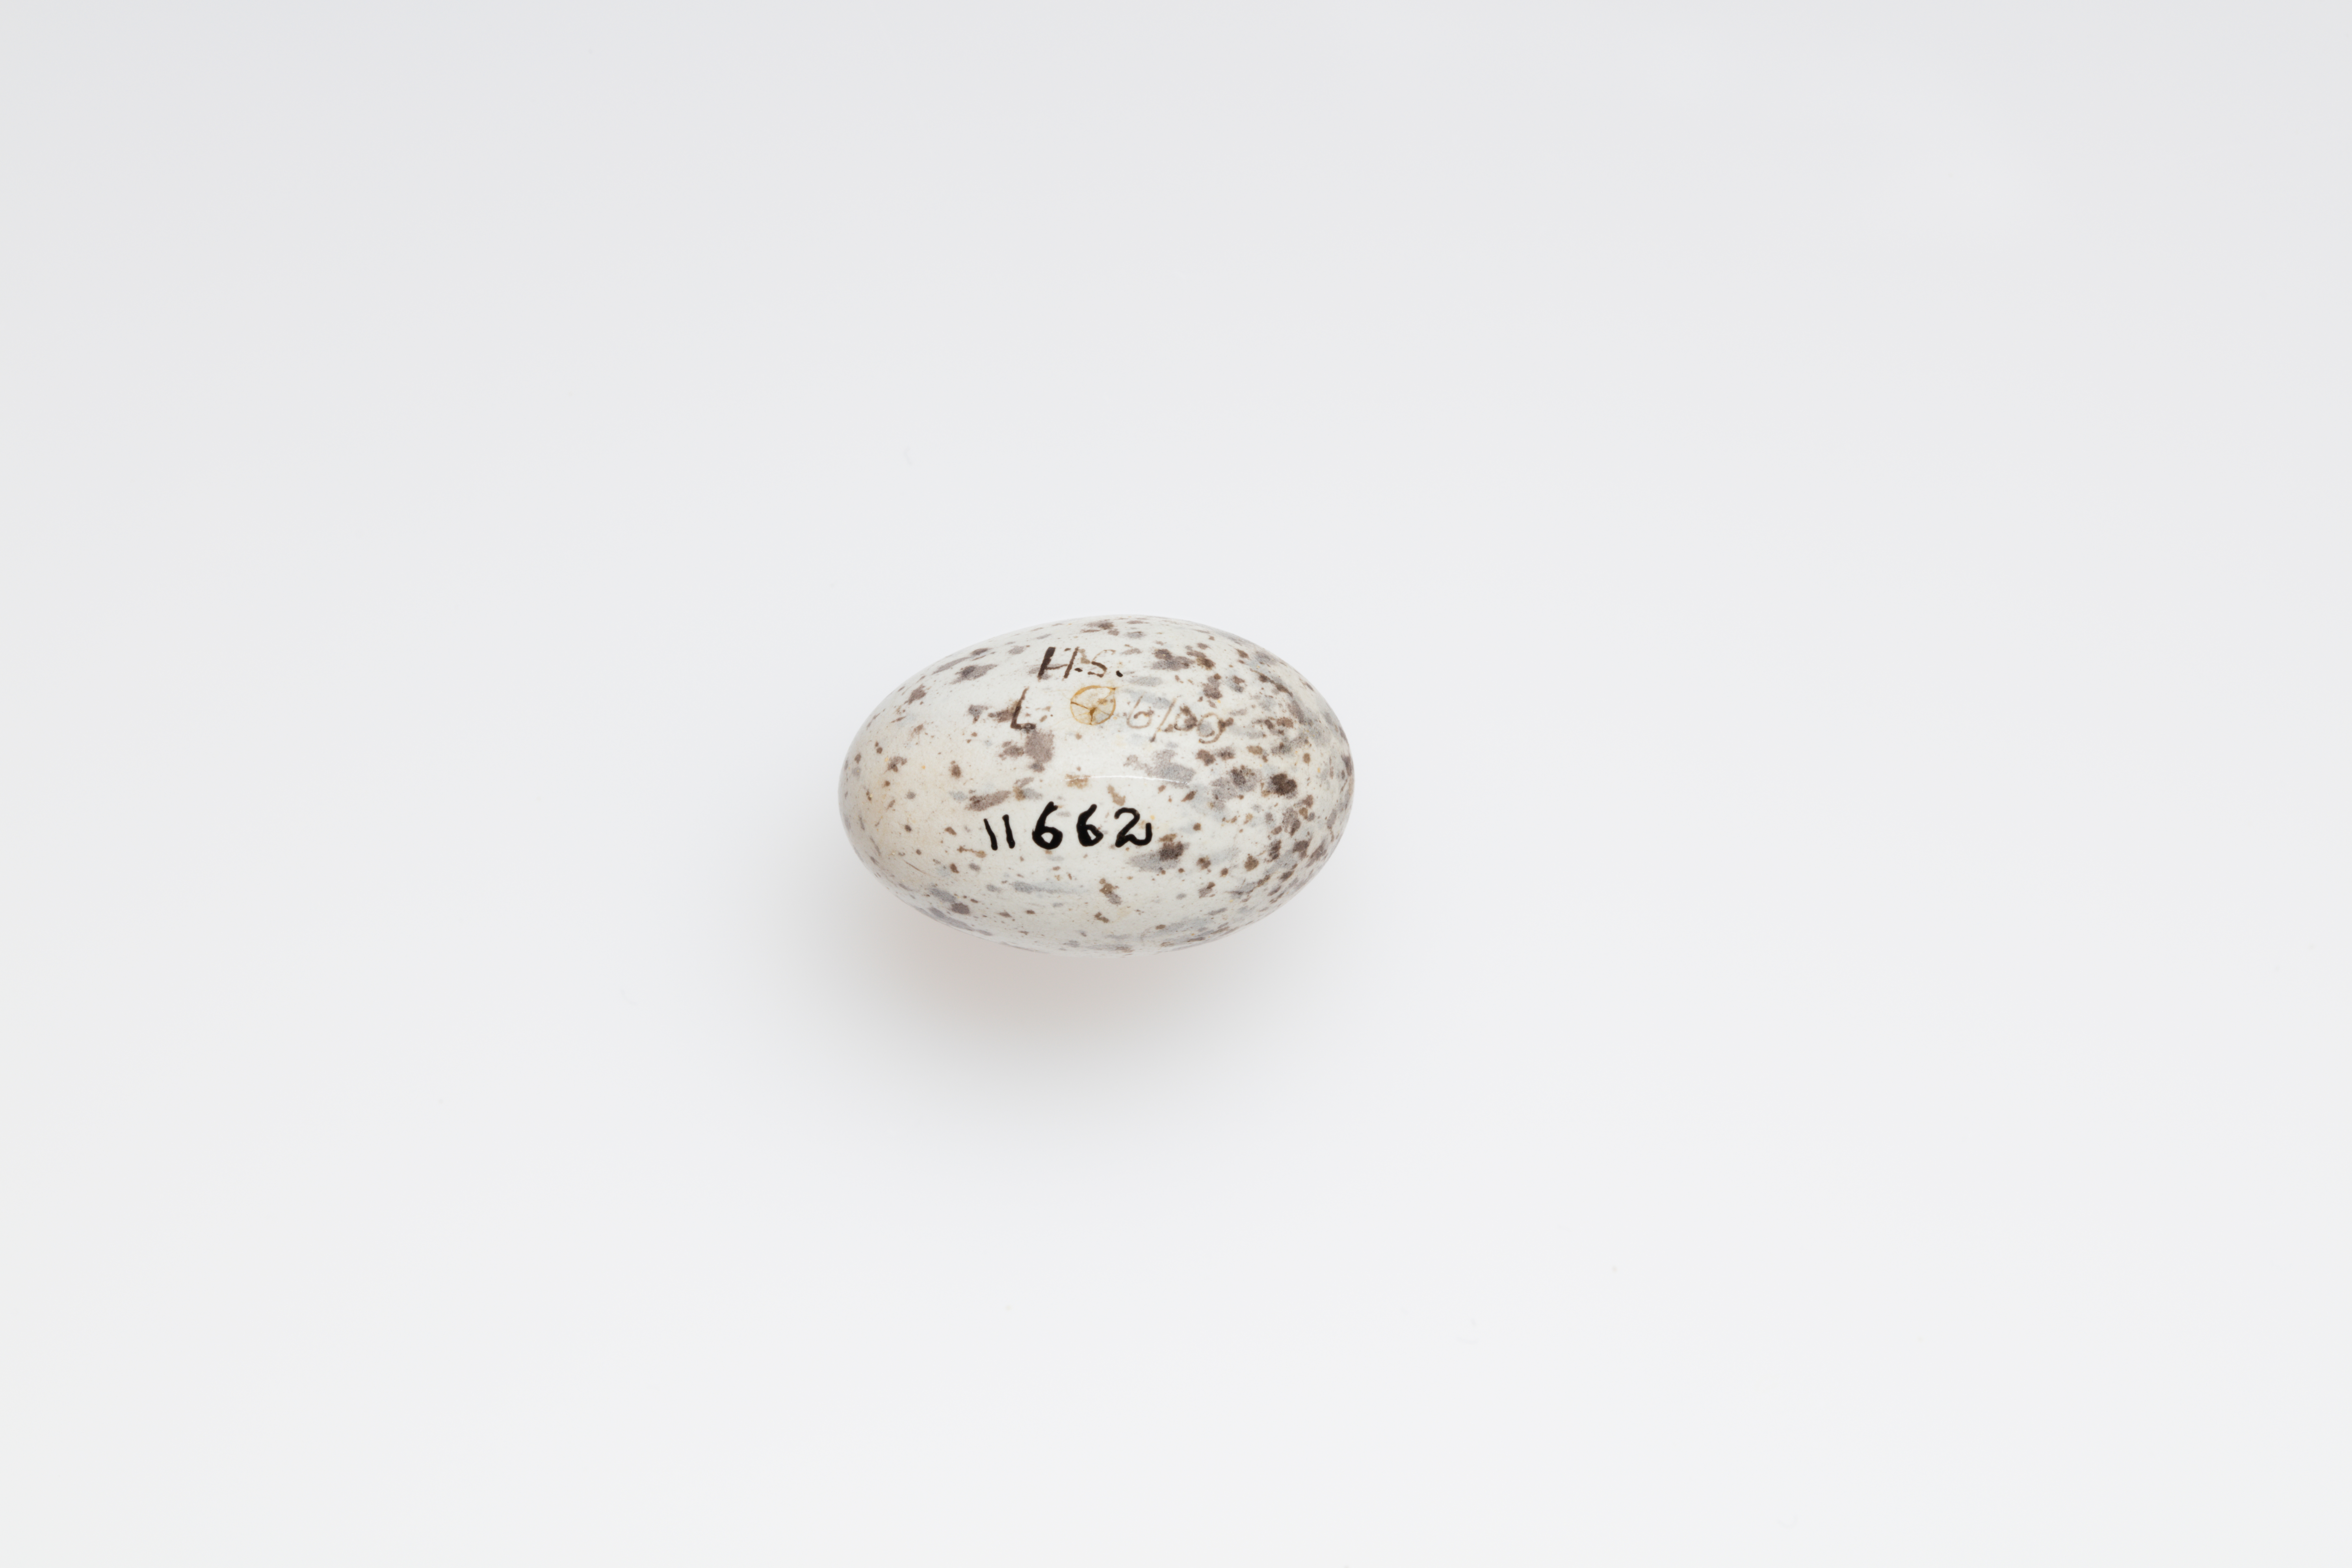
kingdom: Animalia
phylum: Chordata
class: Aves
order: Passeriformes
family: Passeridae
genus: Passer
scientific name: Passer domesticus
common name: House sparrow
